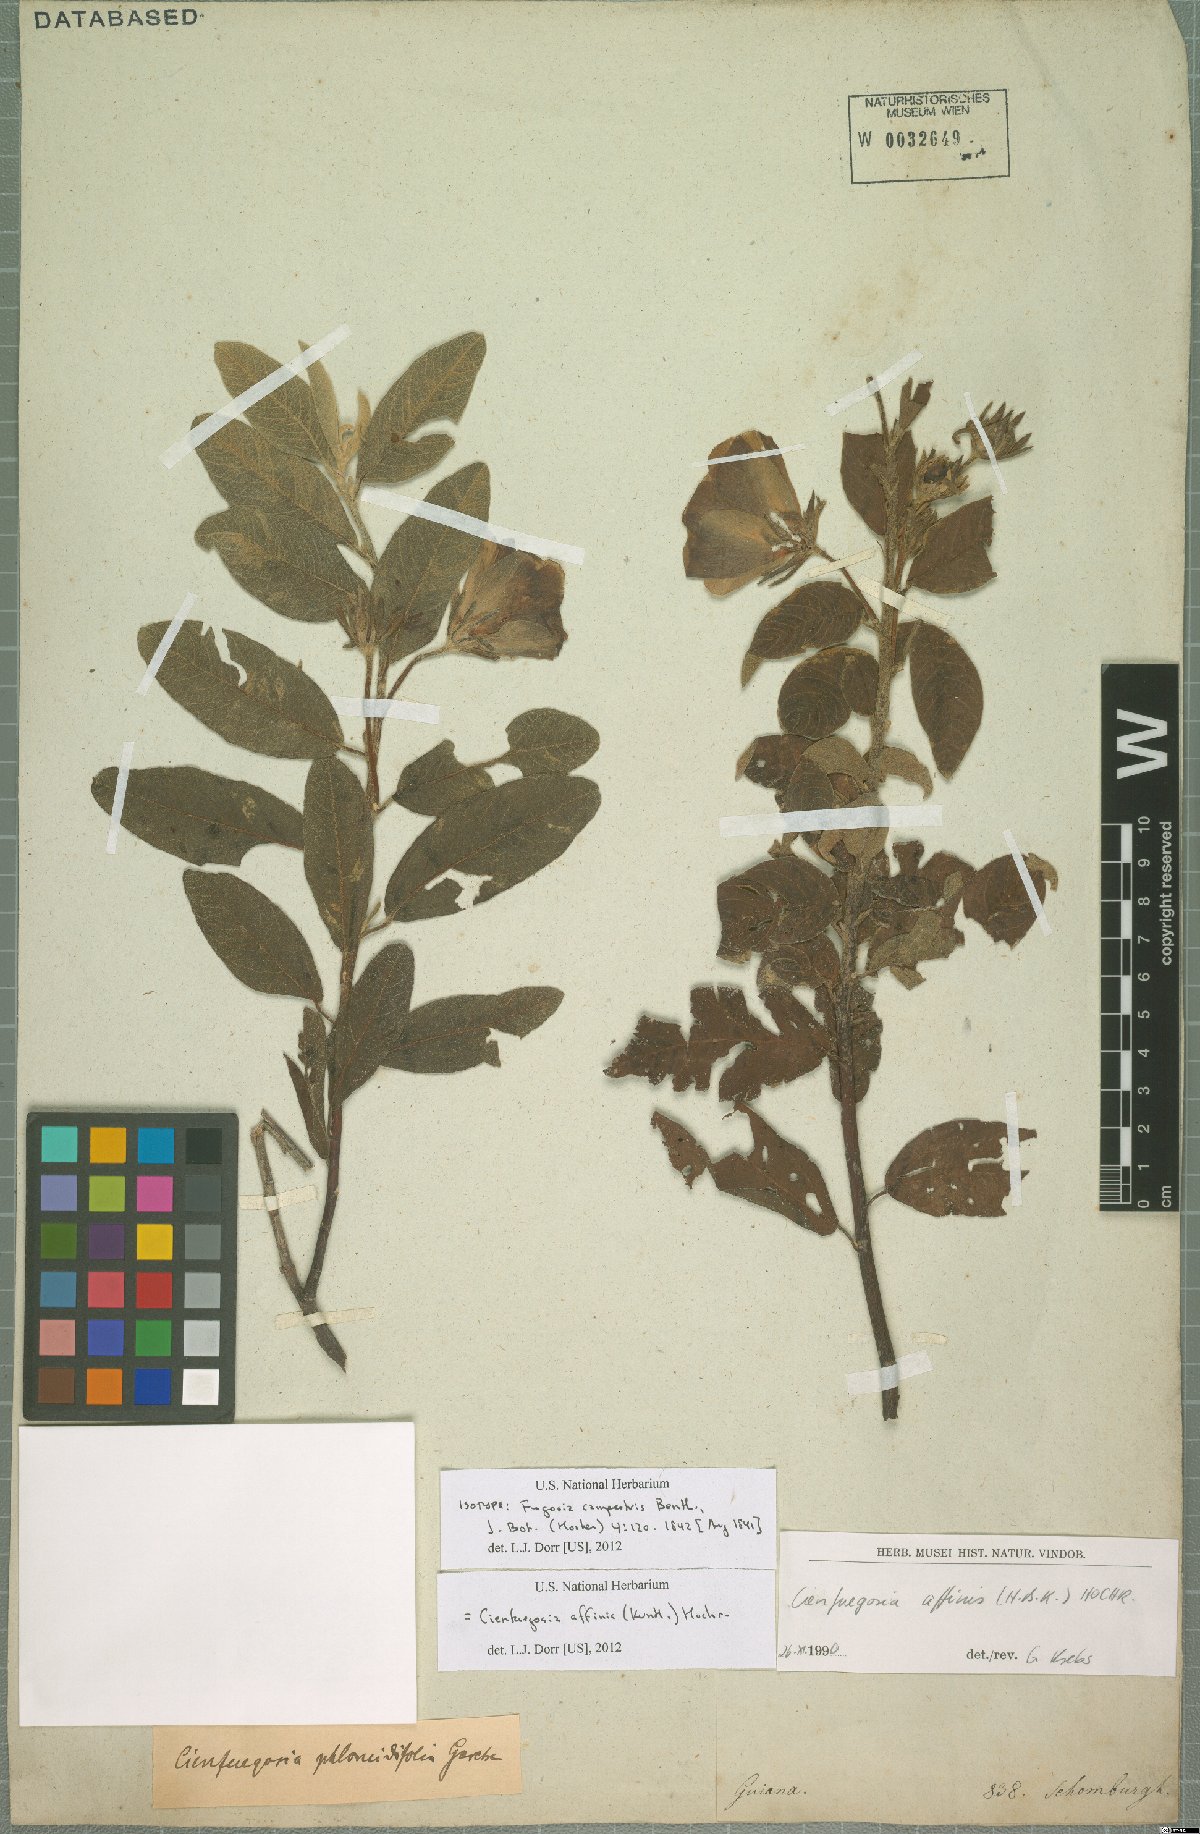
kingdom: Plantae
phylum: Tracheophyta
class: Magnoliopsida
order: Malvales
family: Malvaceae
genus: Cienfuegosia
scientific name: Cienfuegosia affinis
